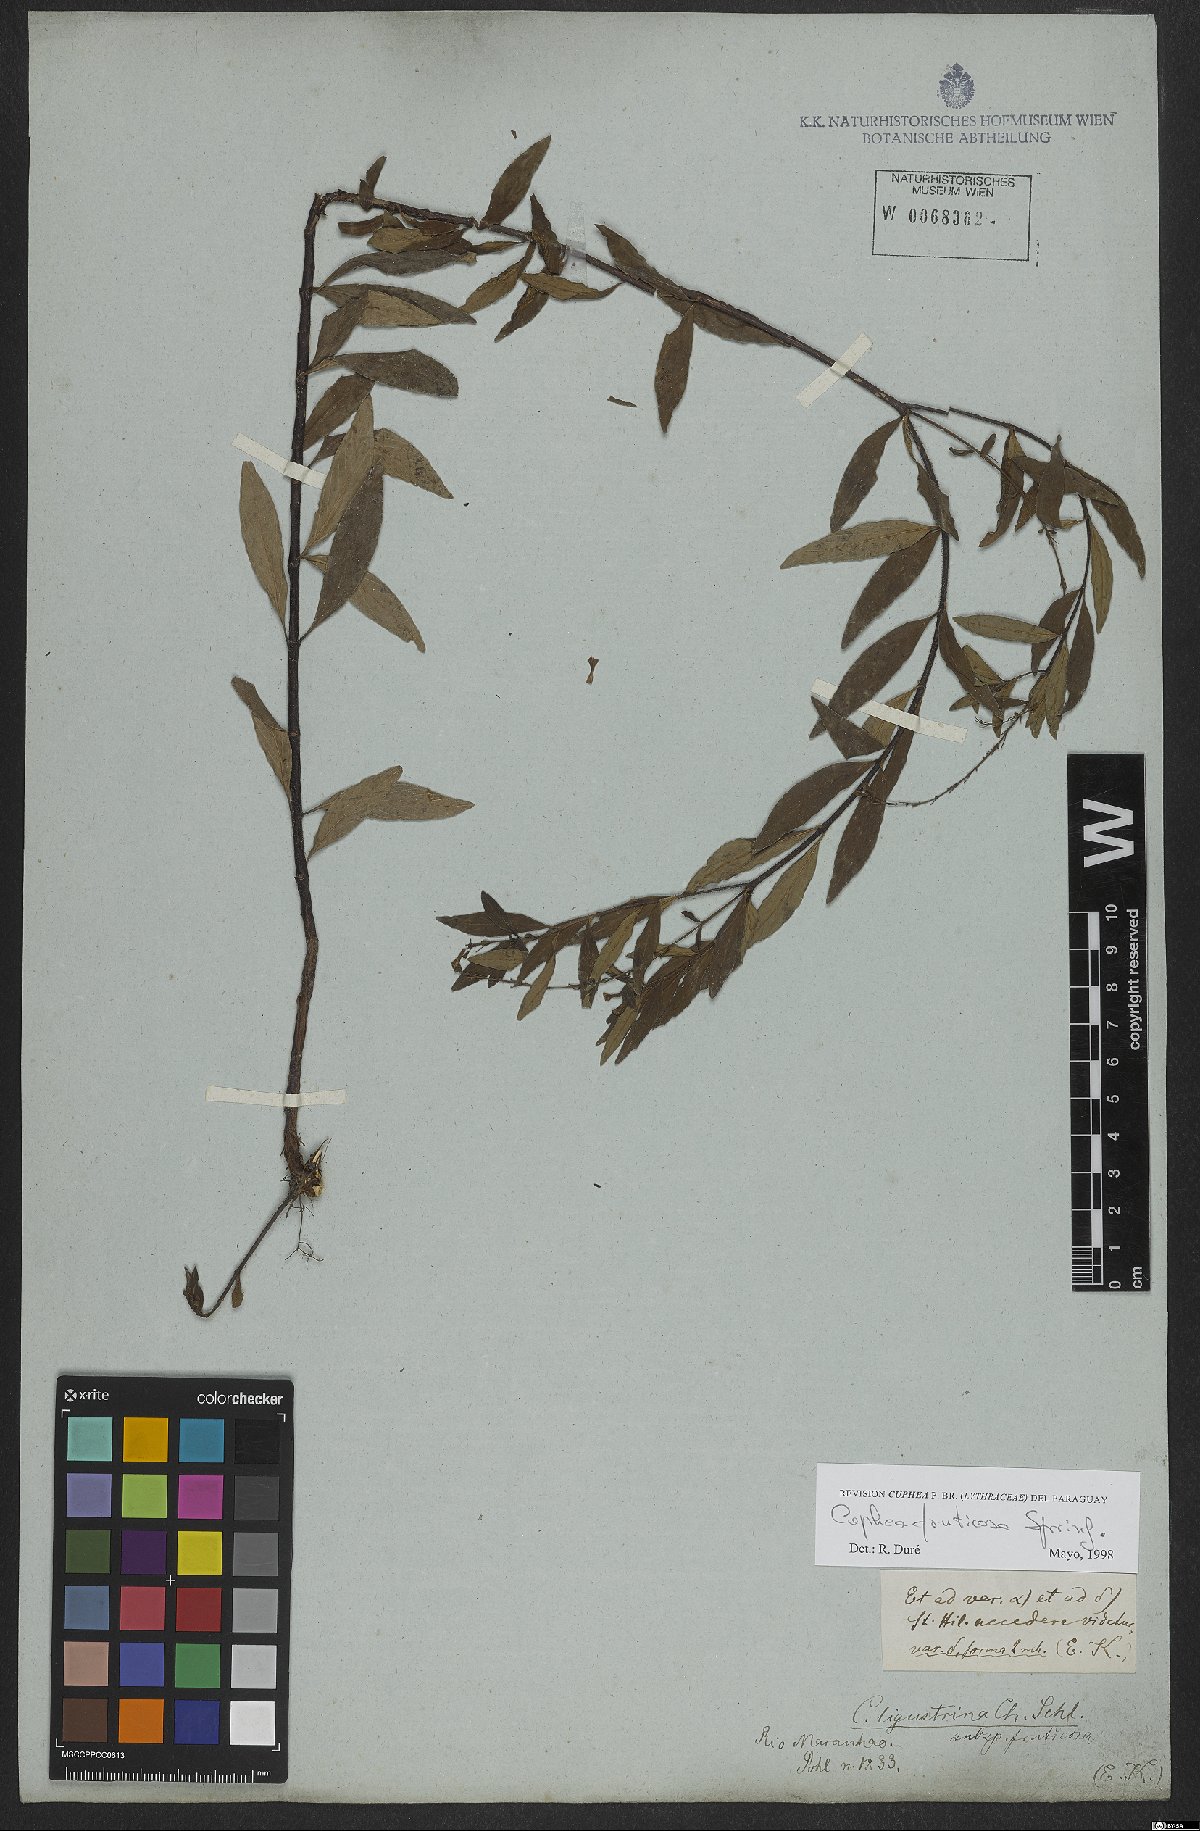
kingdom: Plantae
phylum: Tracheophyta
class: Magnoliopsida
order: Myrtales
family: Lythraceae
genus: Cuphea
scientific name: Cuphea fruticosa
